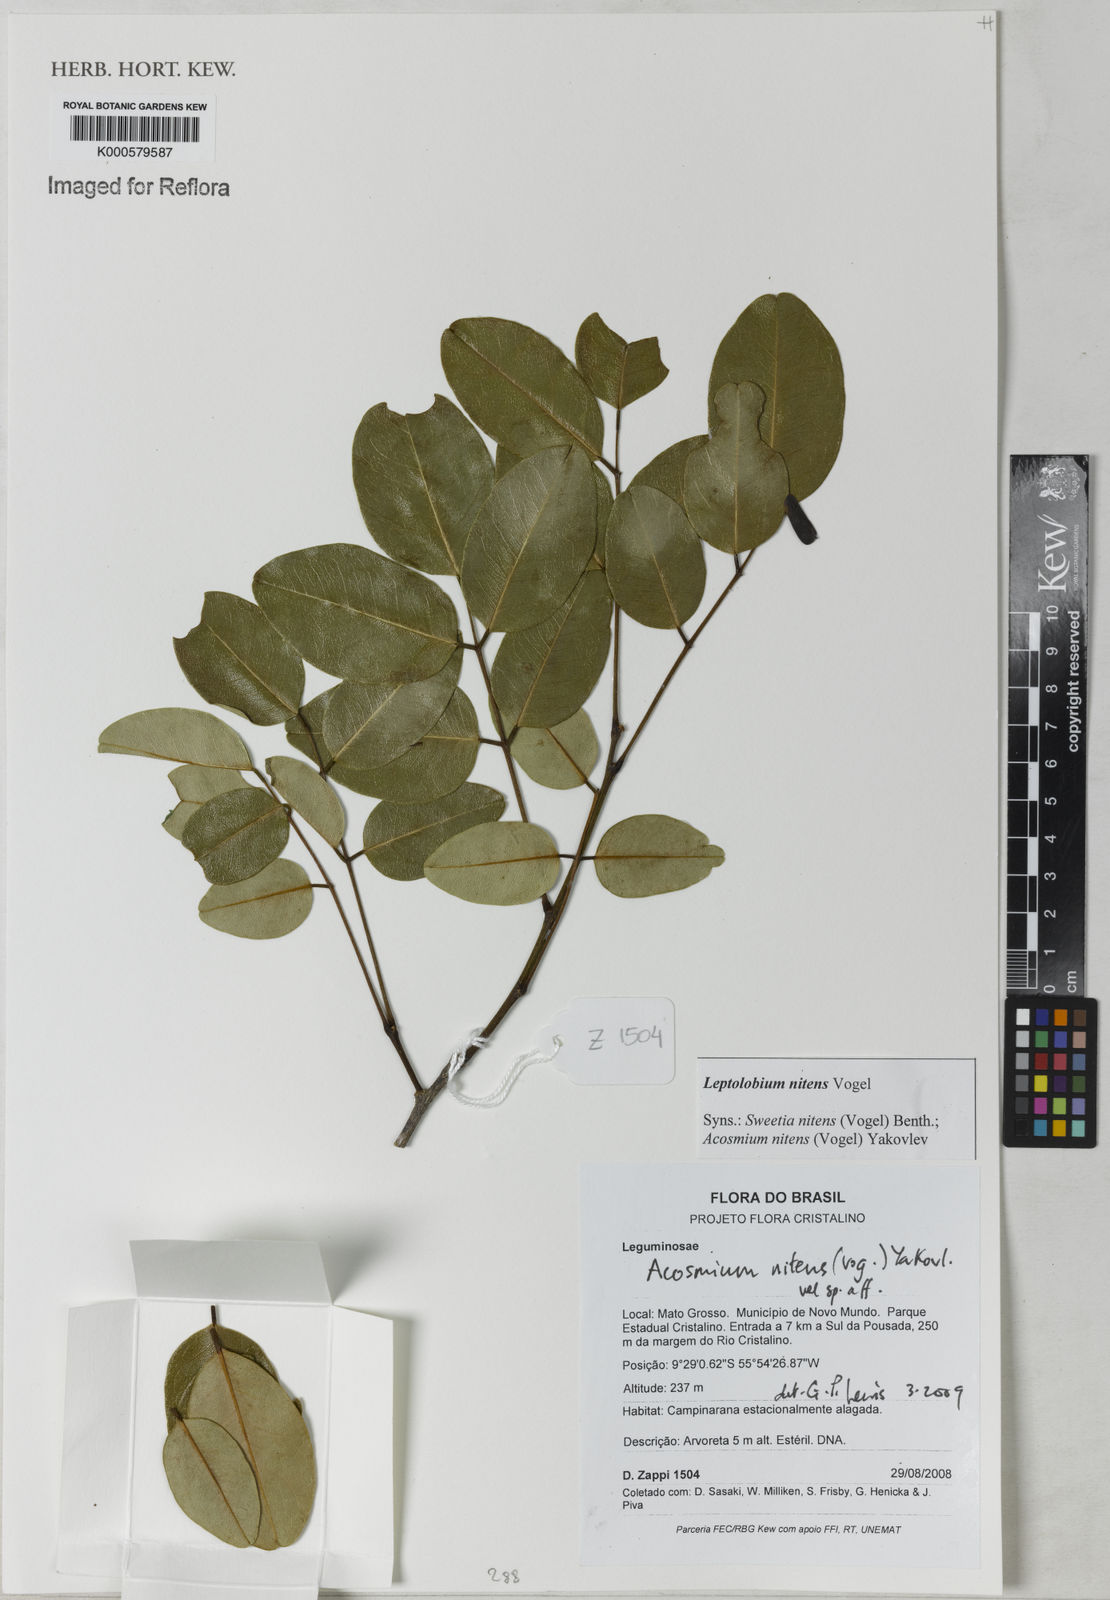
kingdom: Plantae
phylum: Tracheophyta
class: Magnoliopsida
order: Fabales
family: Fabaceae
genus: Leptolobium
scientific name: Leptolobium nitens
